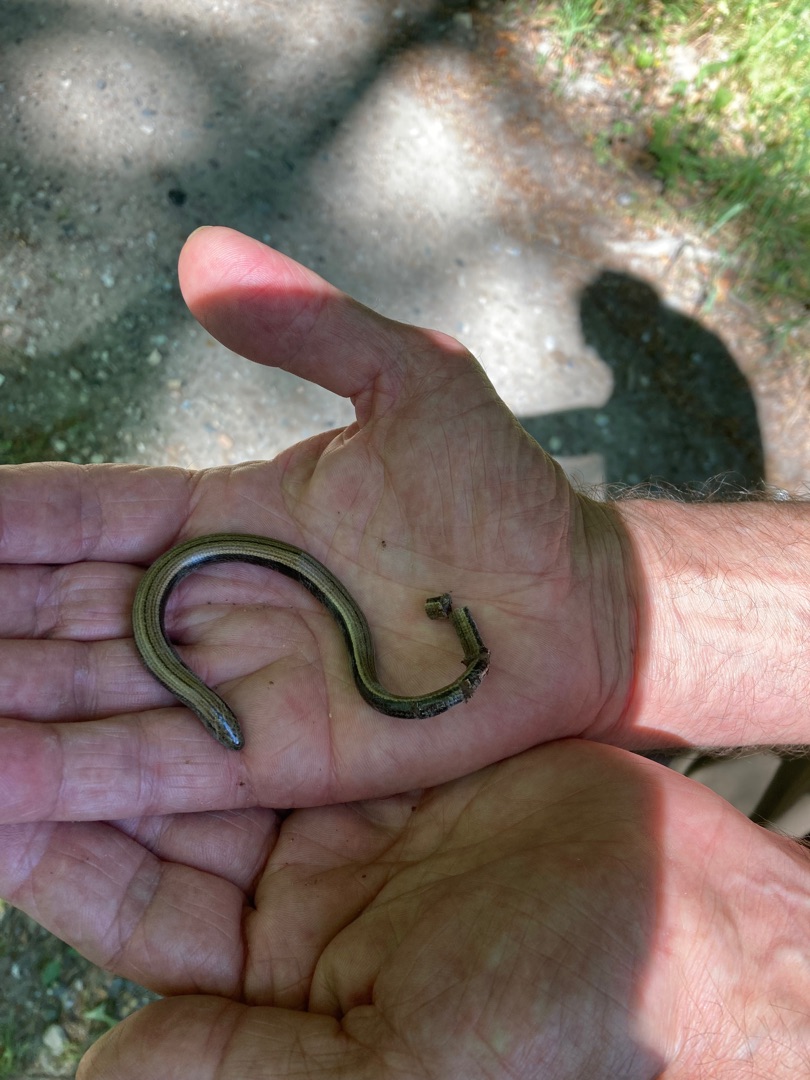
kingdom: Animalia
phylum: Chordata
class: Squamata
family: Anguidae
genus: Anguis
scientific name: Anguis fragilis
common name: Stålorm
